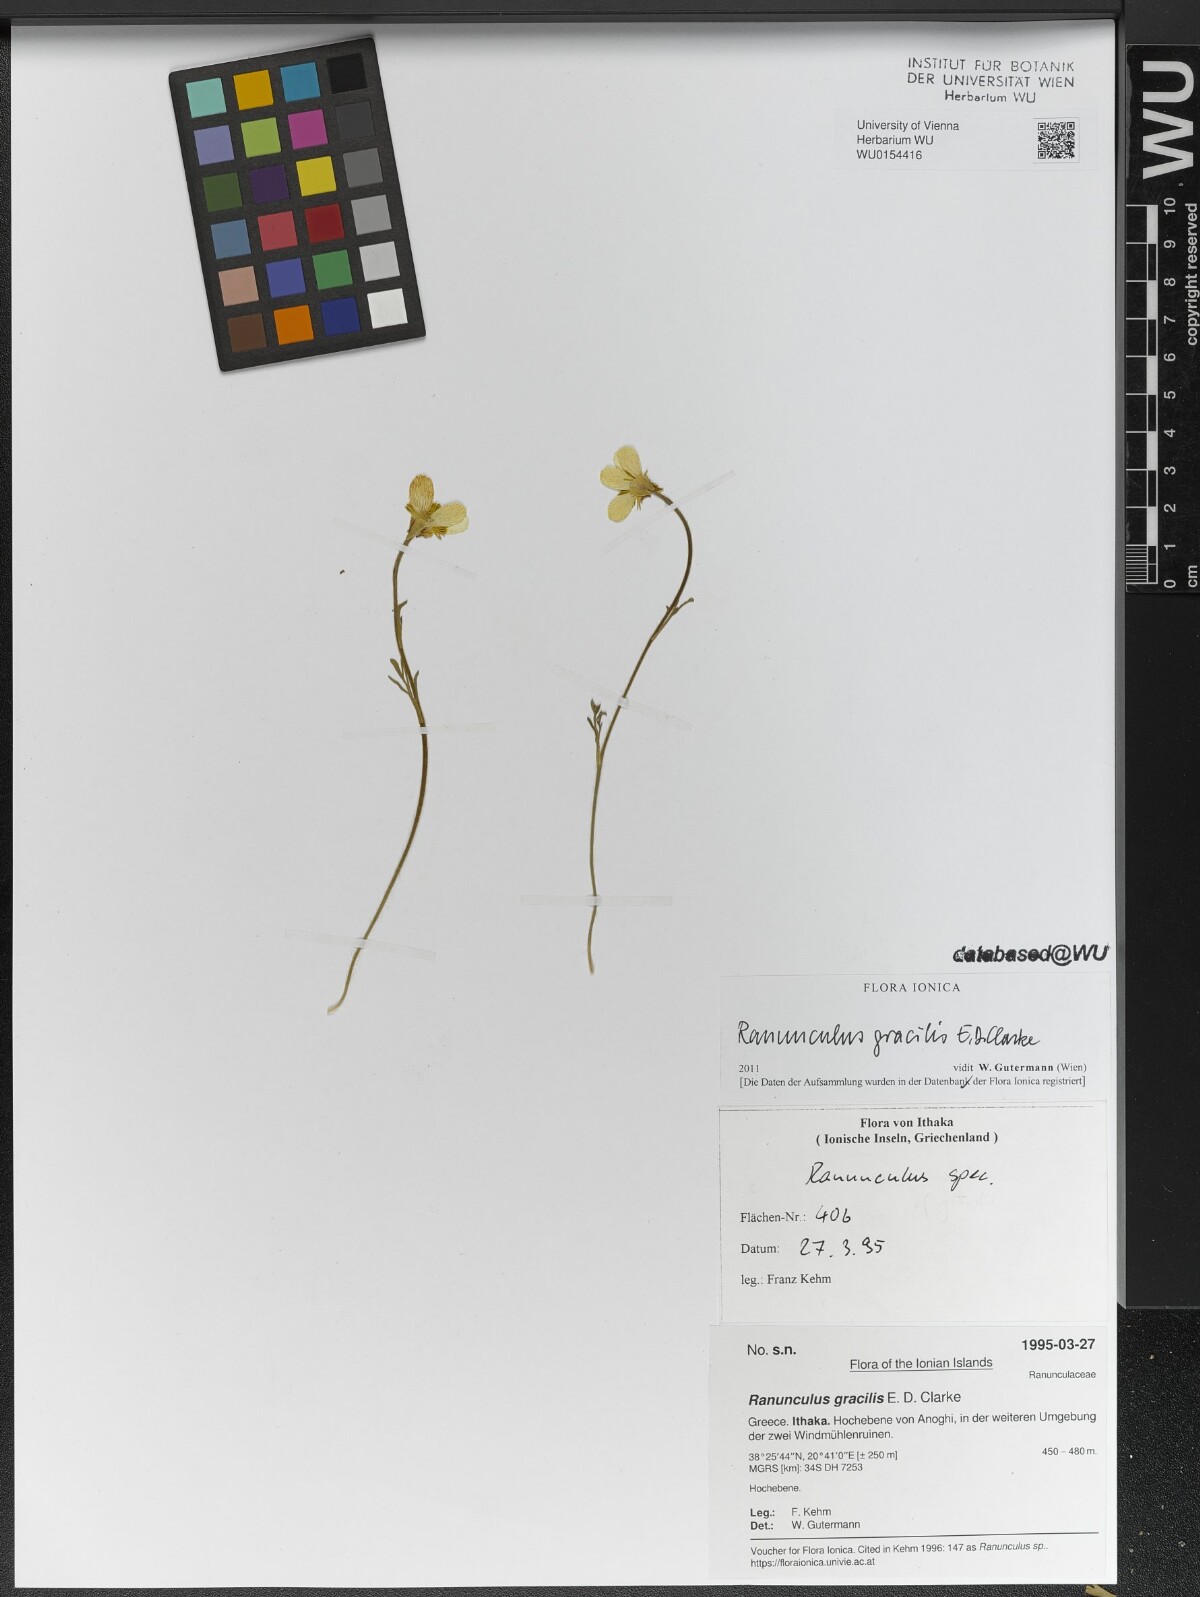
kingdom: Plantae
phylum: Tracheophyta
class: Magnoliopsida
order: Ranunculales
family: Ranunculaceae
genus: Ranunculus
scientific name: Ranunculus gracilis
